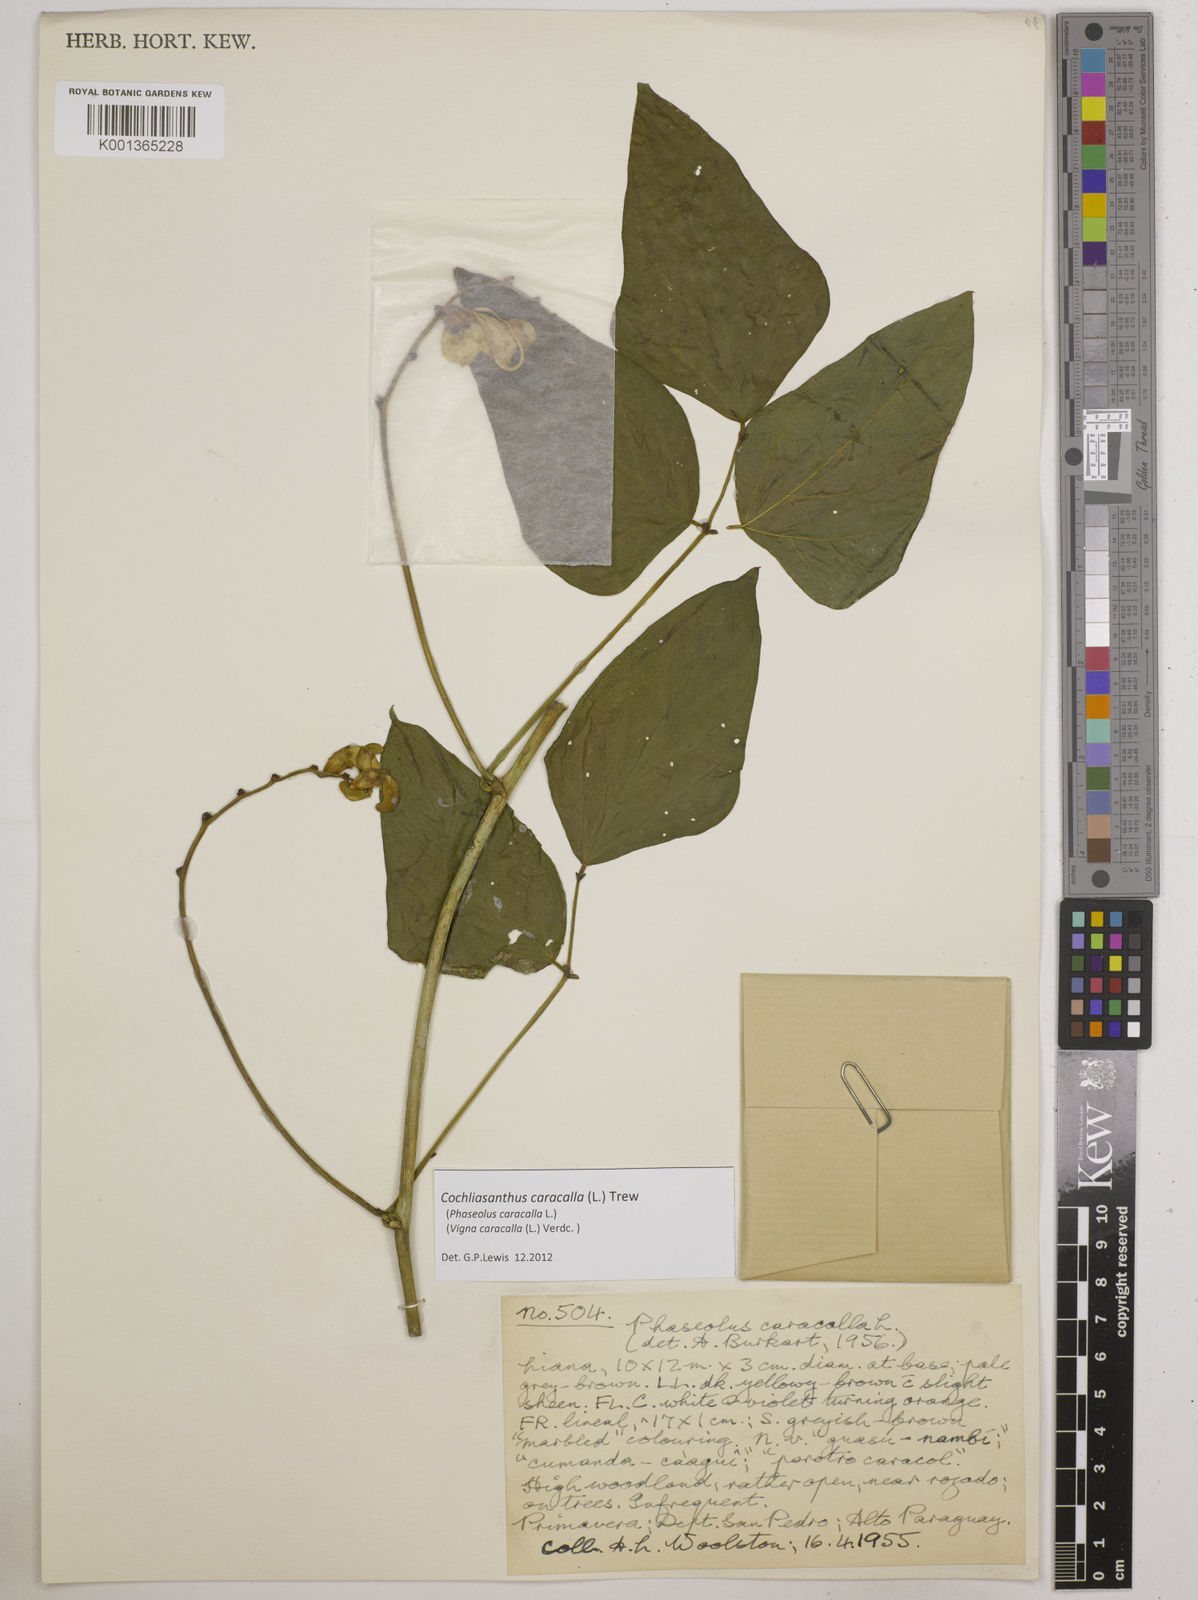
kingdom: Plantae
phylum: Tracheophyta
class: Magnoliopsida
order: Fabales
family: Fabaceae
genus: Cochliasanthus
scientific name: Cochliasanthus caracalla
